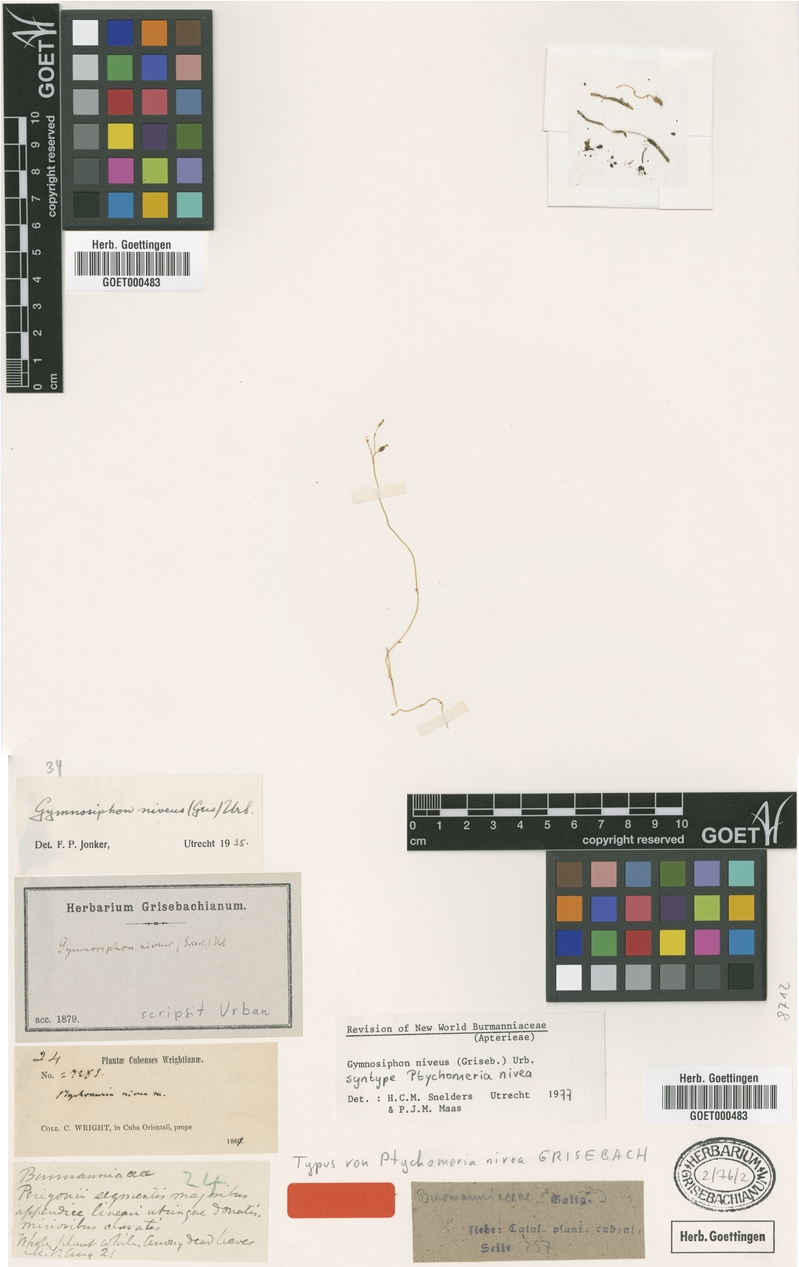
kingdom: Plantae
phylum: Tracheophyta
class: Liliopsida
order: Dioscoreales
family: Burmanniaceae
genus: Gymnosiphon
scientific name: Gymnosiphon niveus
